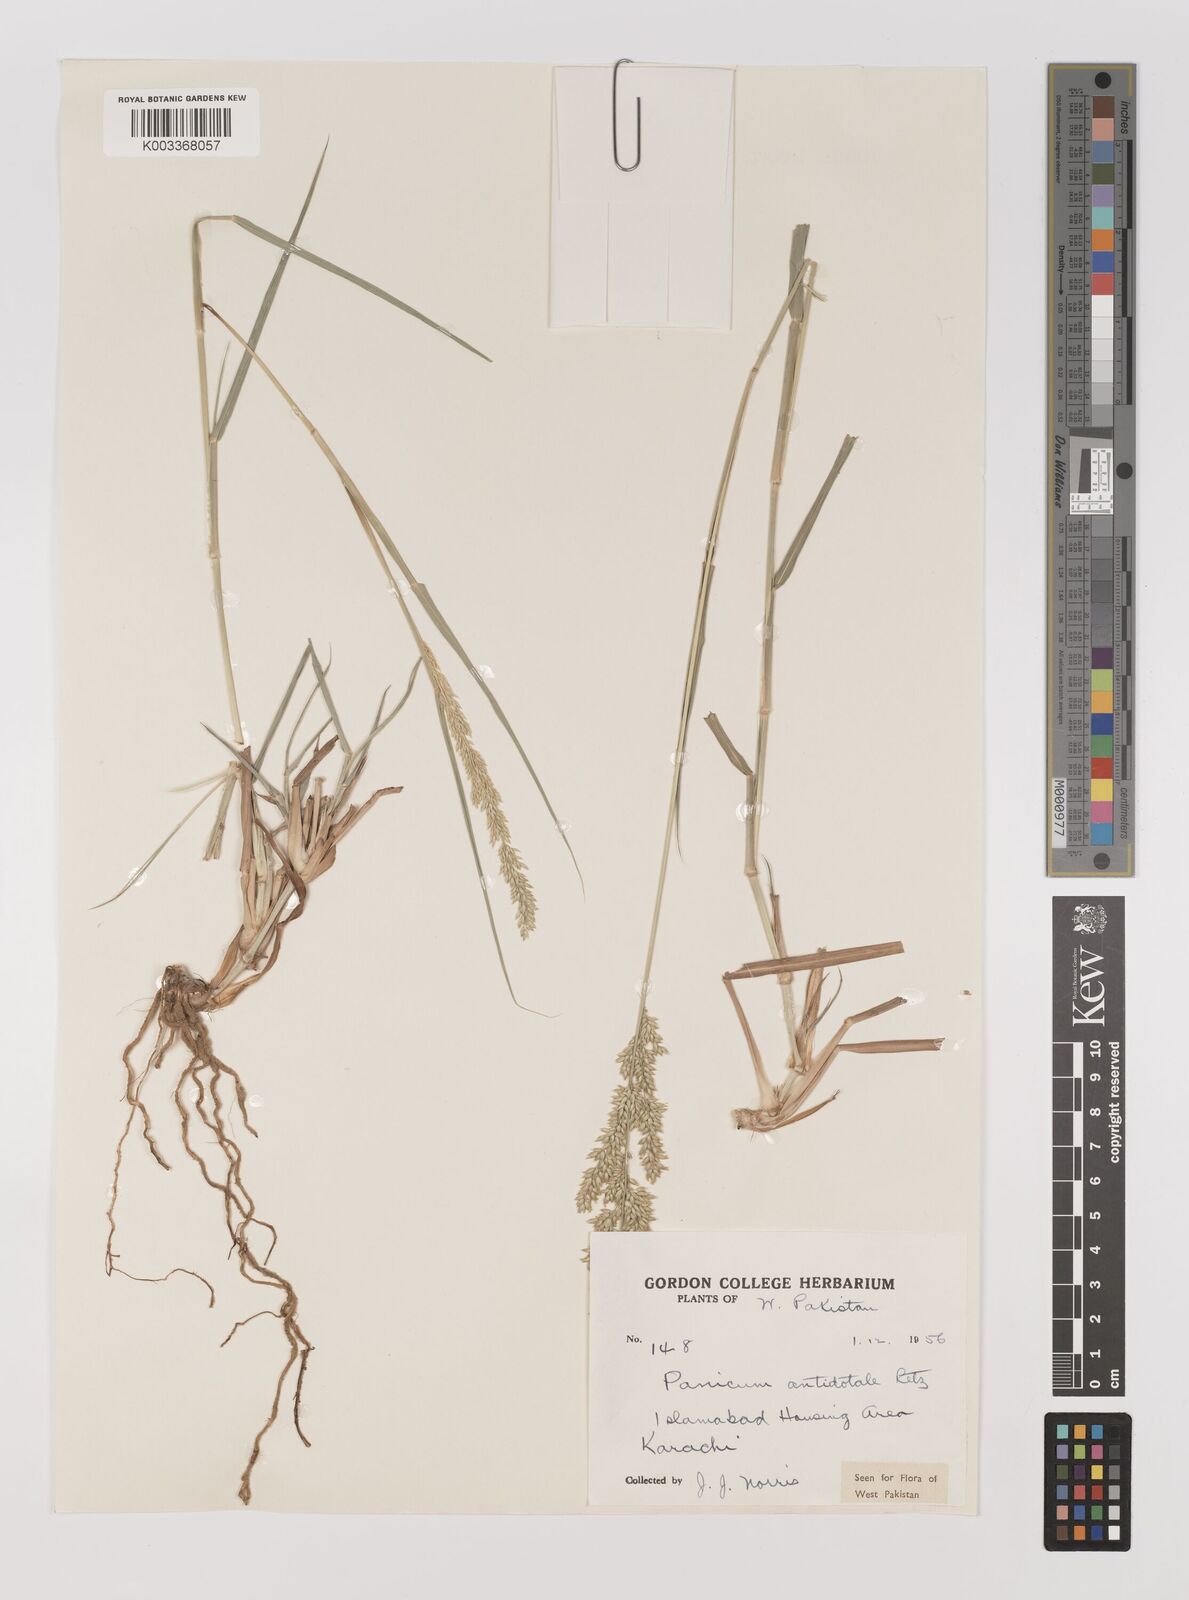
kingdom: Plantae
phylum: Tracheophyta
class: Liliopsida
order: Poales
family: Poaceae
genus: Panicum
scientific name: Panicum antidotale
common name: Blue panicum
